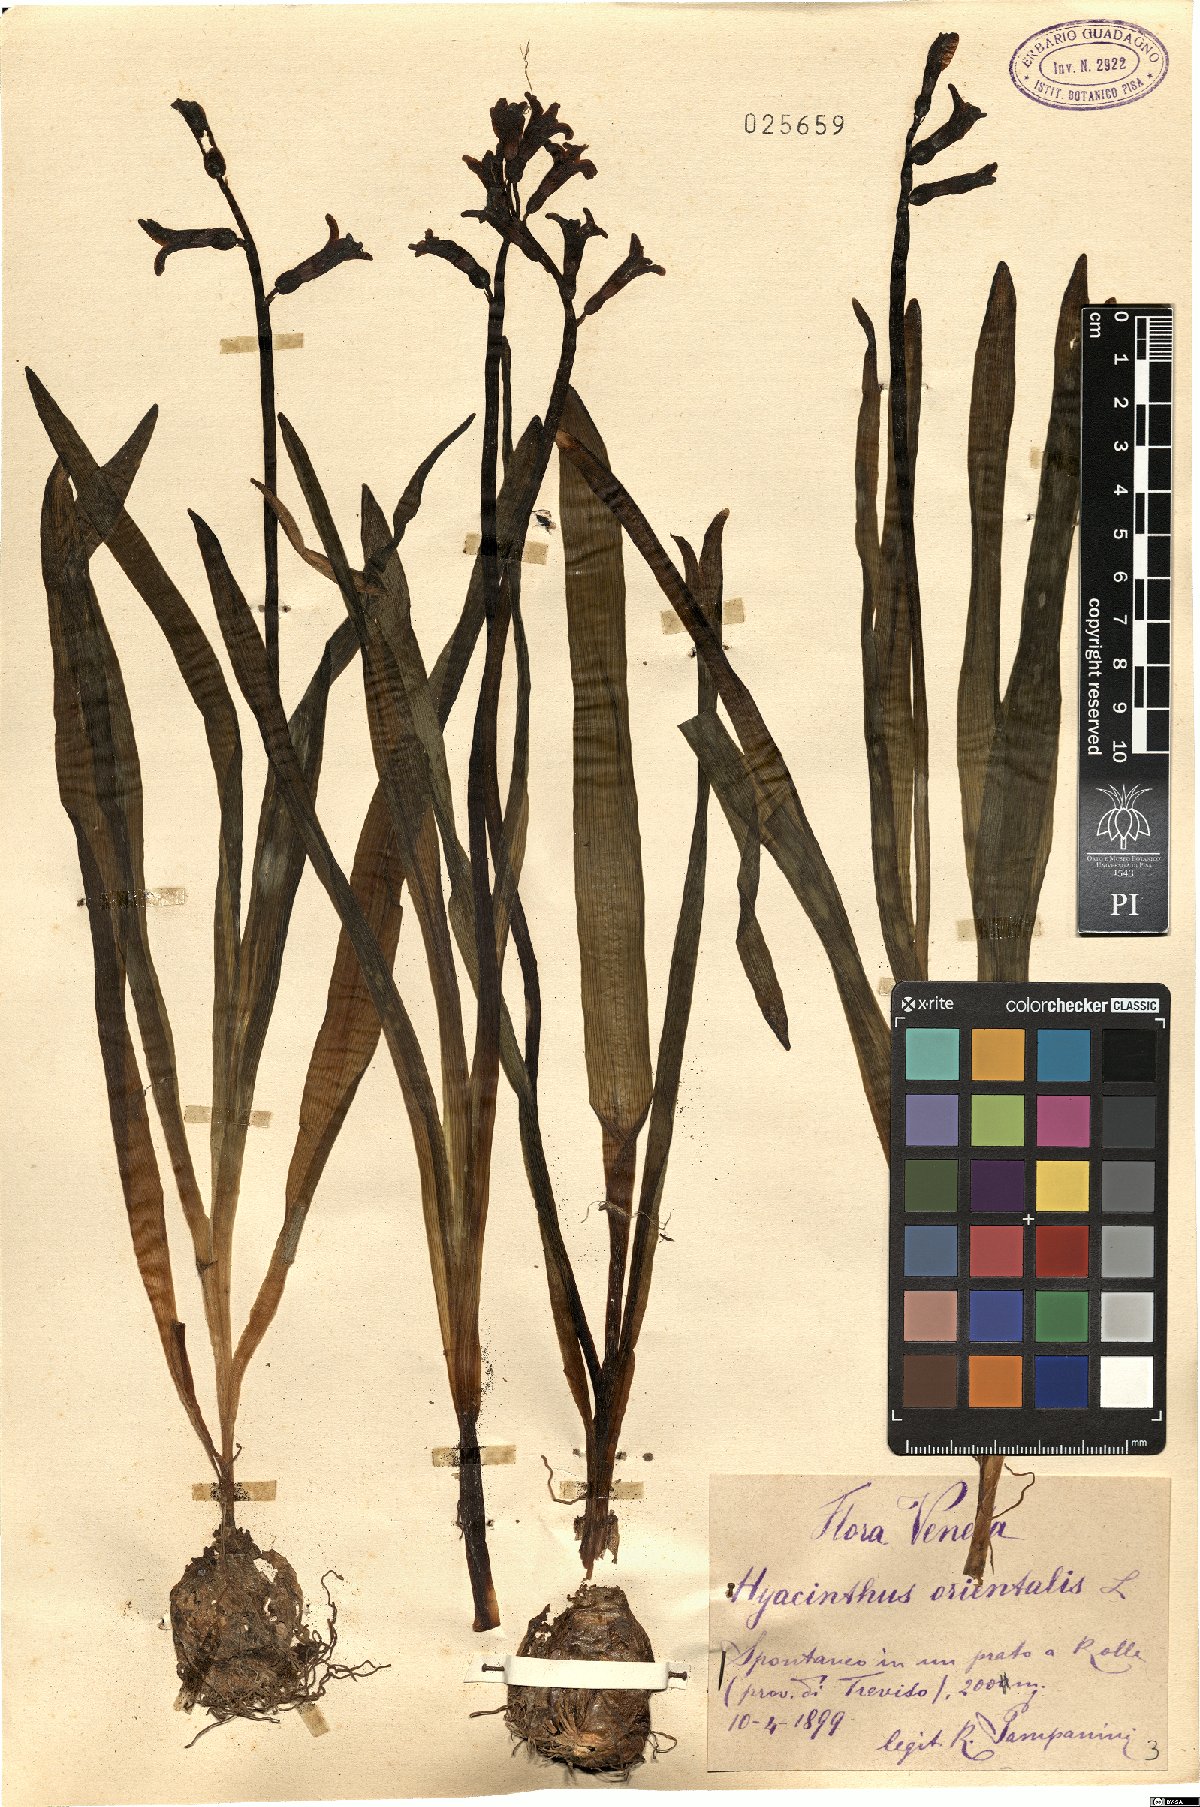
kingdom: Plantae
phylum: Tracheophyta
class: Liliopsida
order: Asparagales
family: Asparagaceae
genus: Hyacinthus
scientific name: Hyacinthus orientalis
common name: Hyacinth
